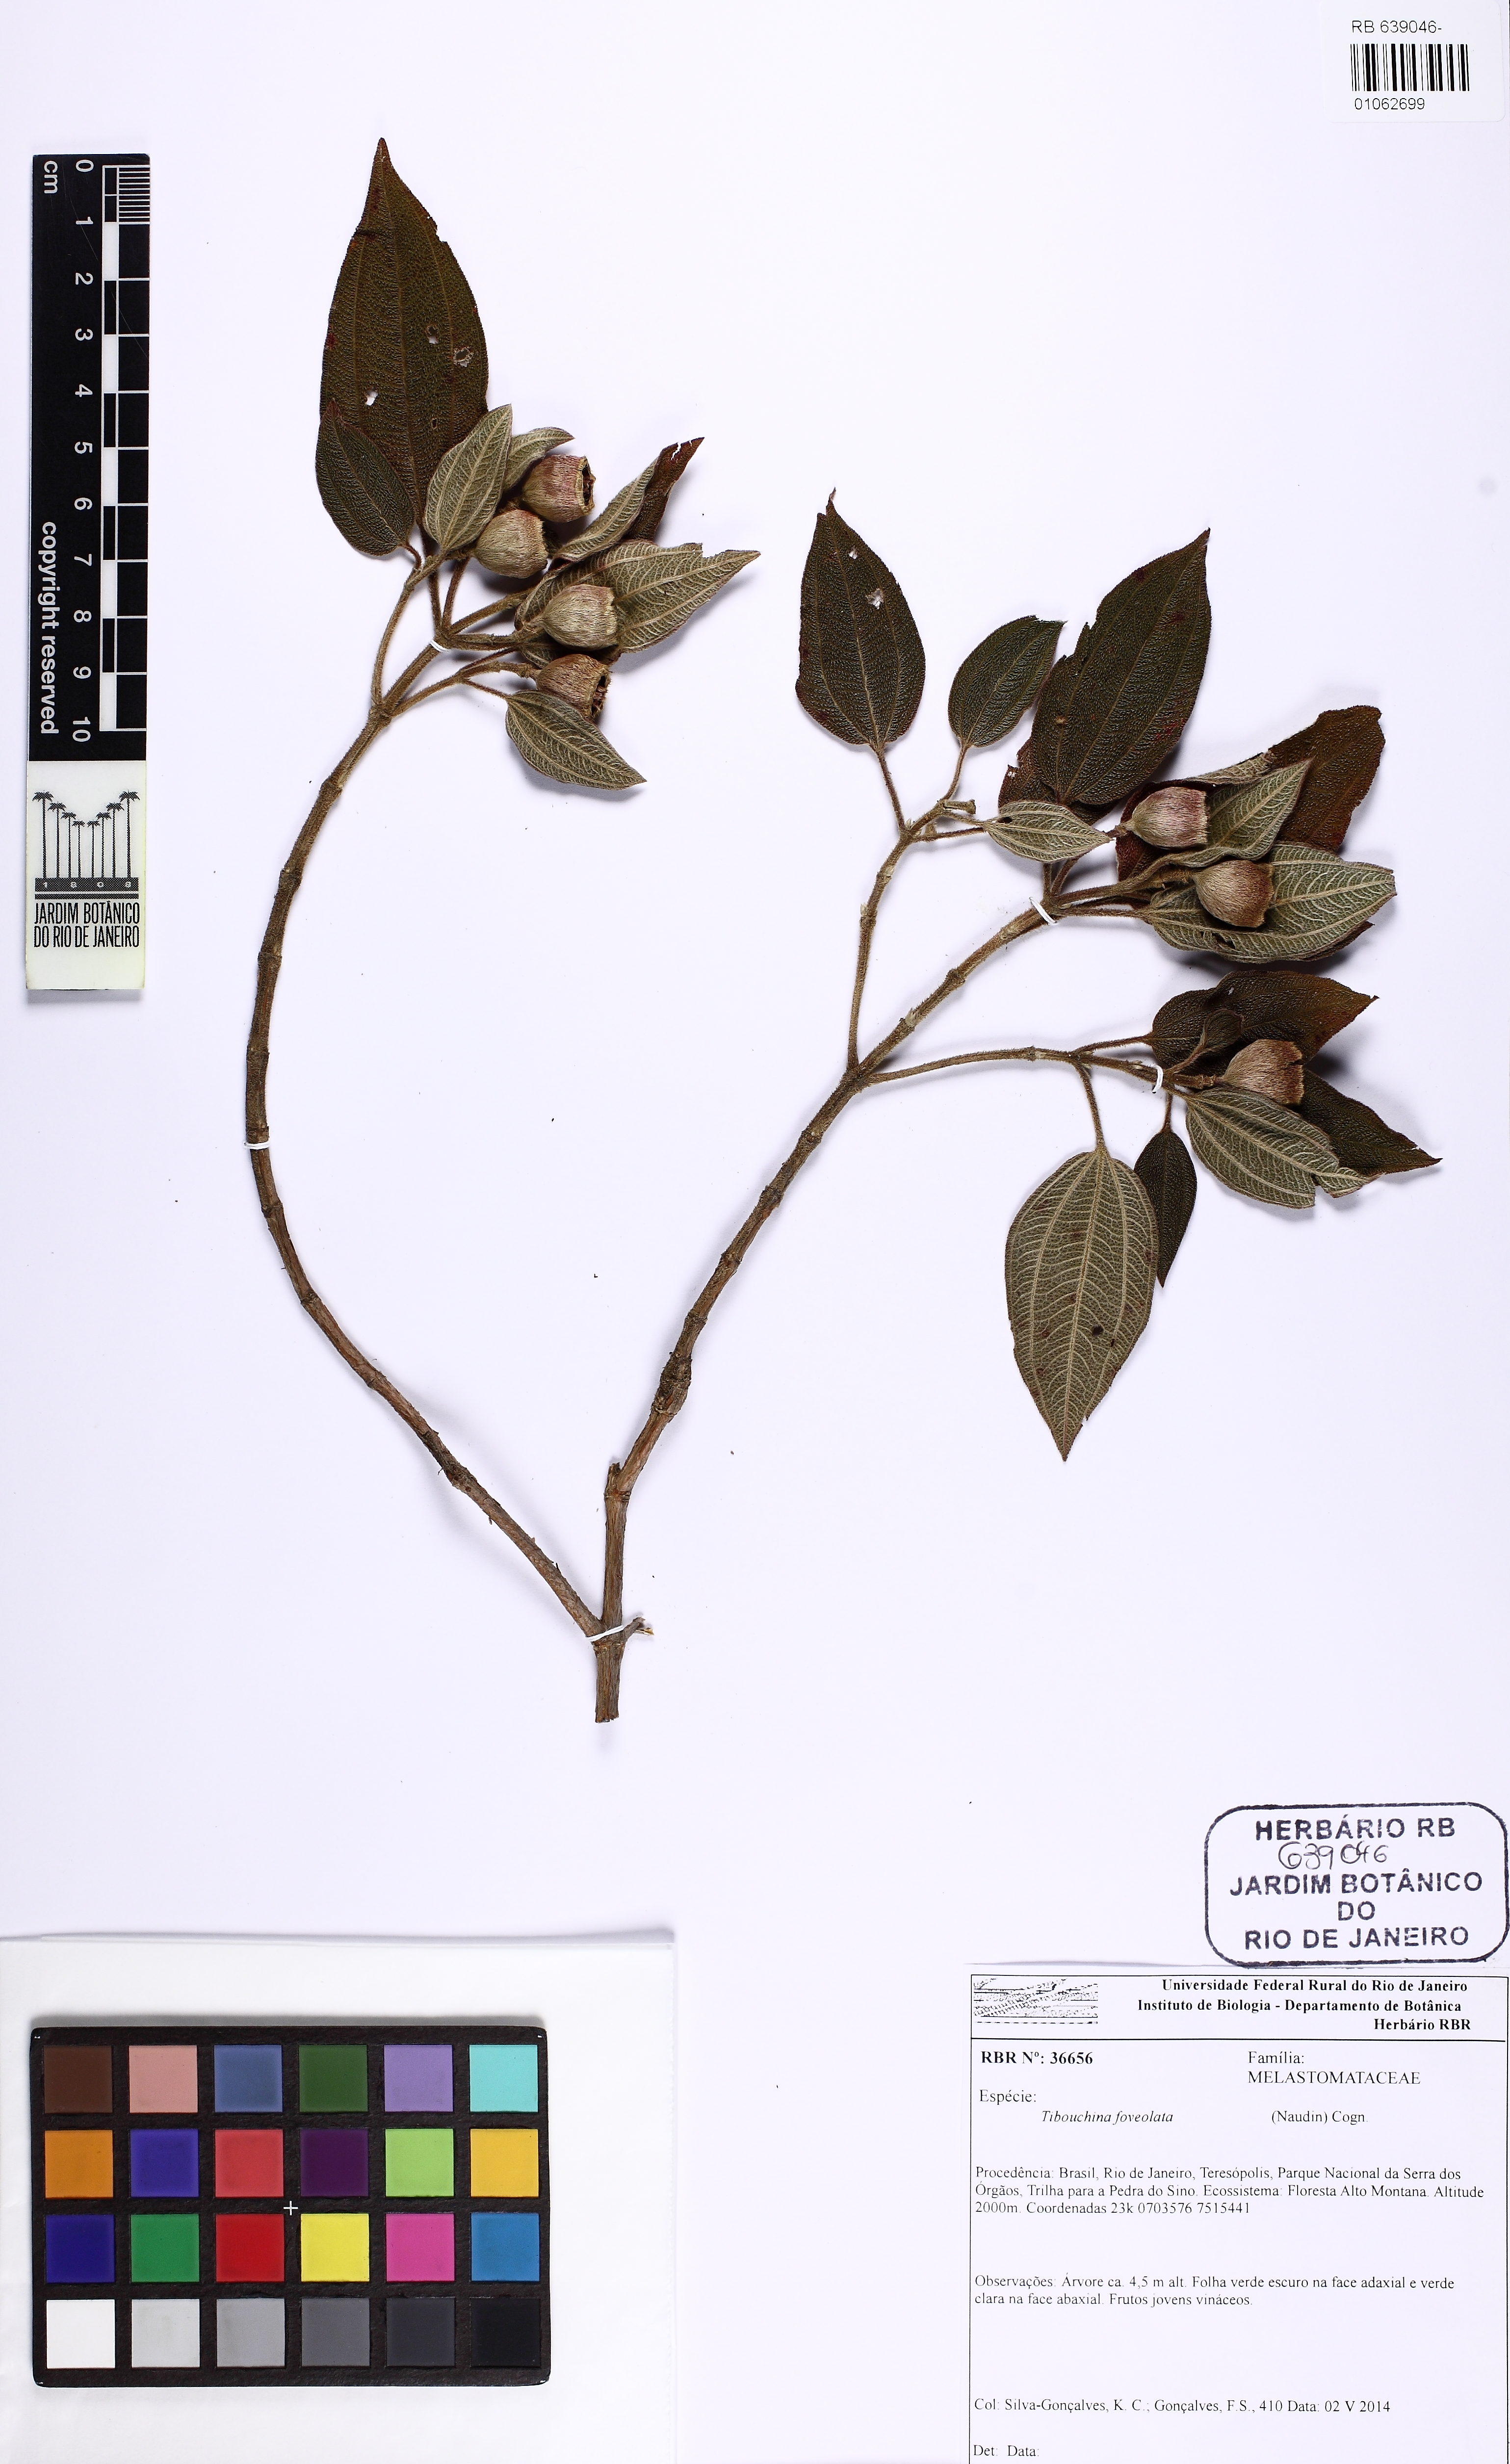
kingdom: Plantae
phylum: Tracheophyta
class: Magnoliopsida
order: Myrtales
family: Melastomataceae
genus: Pleroma
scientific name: Pleroma foveolatum
